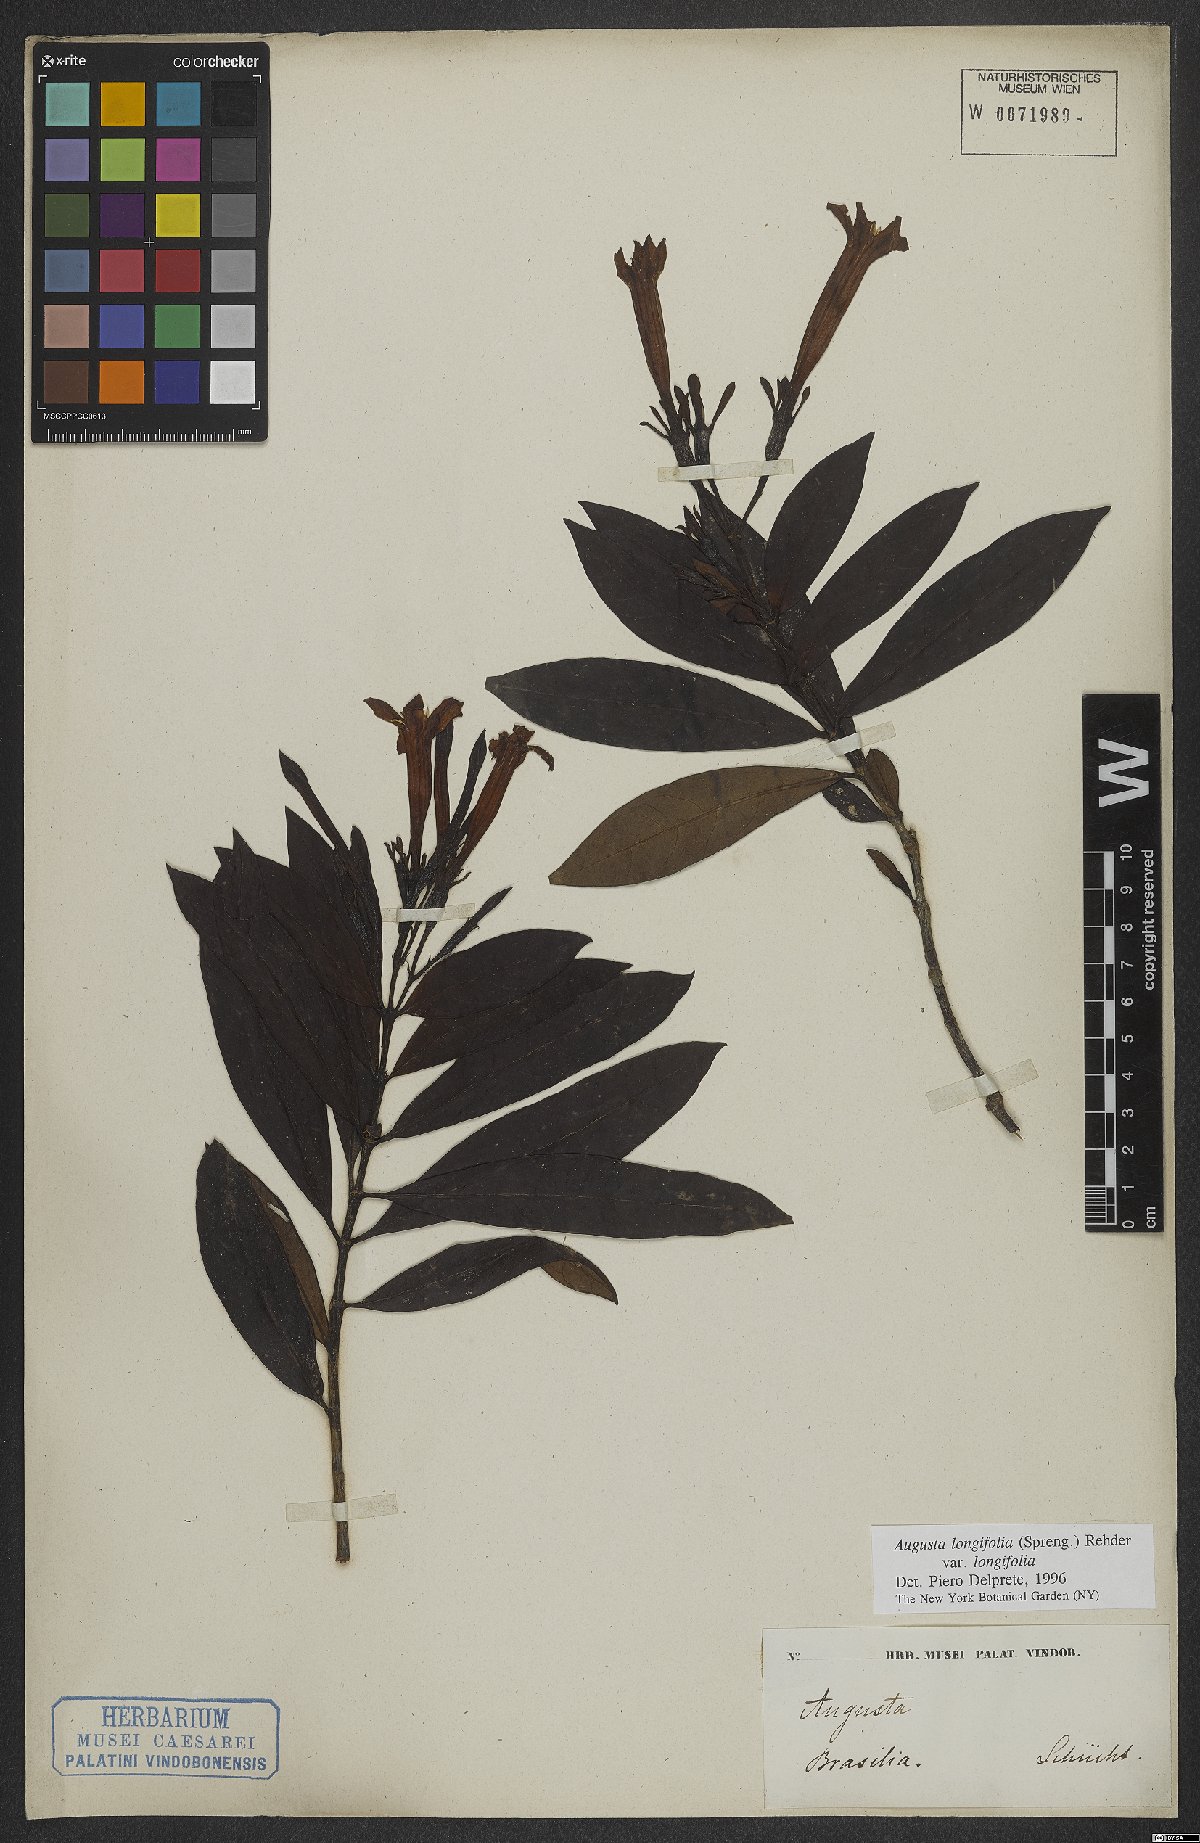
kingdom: Plantae
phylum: Tracheophyta
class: Magnoliopsida
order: Gentianales
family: Rubiaceae
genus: Augusta
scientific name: Augusta longifolia
